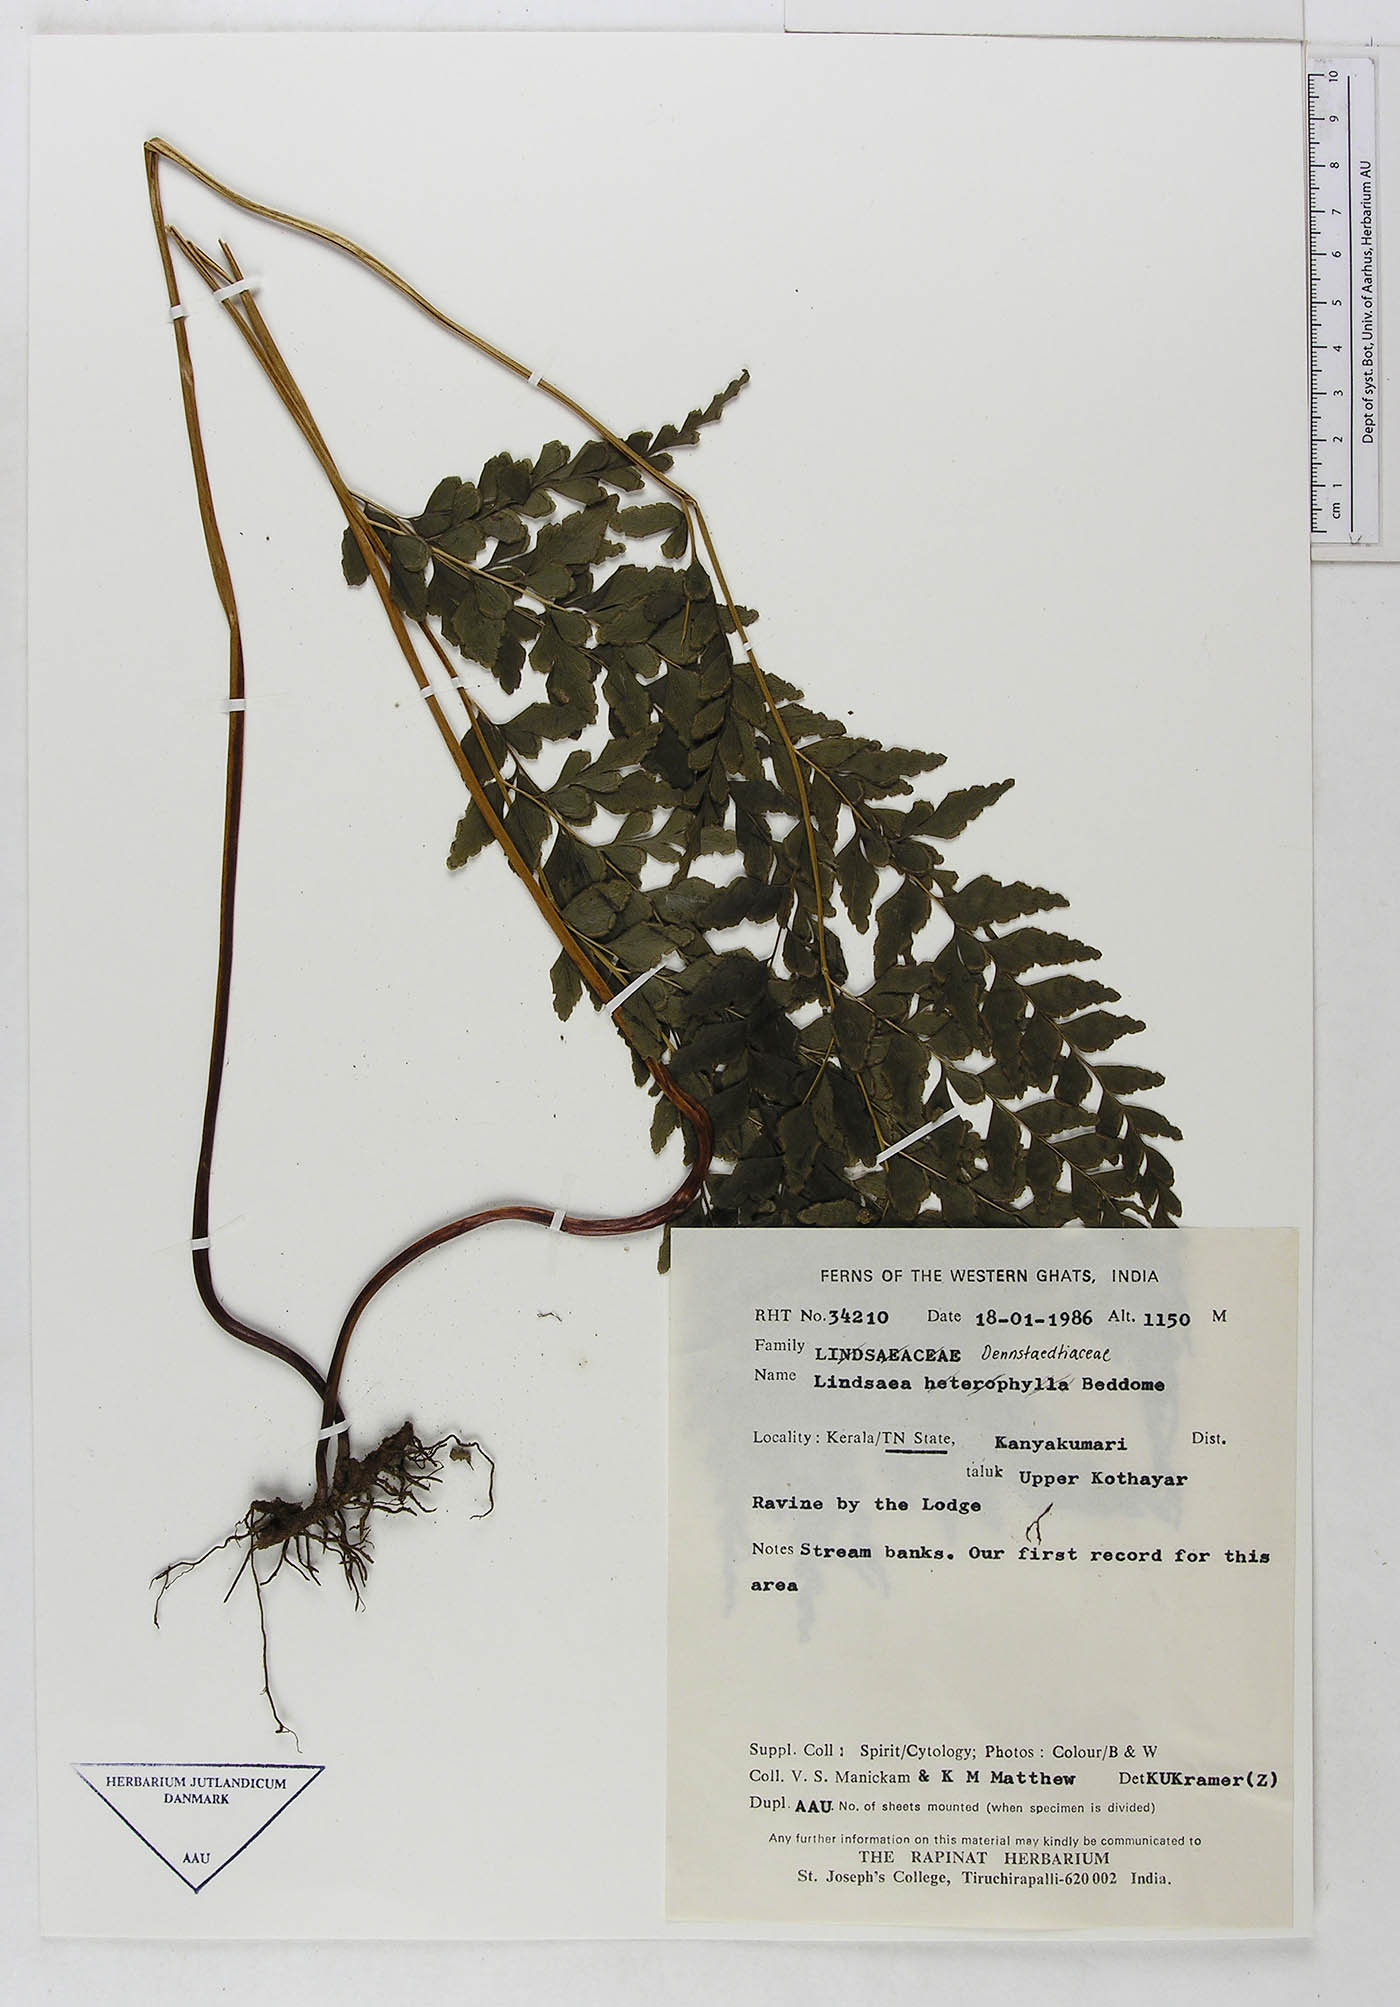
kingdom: Plantae
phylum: Tracheophyta
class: Polypodiopsida
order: Polypodiales
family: Dennstaedtiaceae
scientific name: Dennstaedtiaceae
